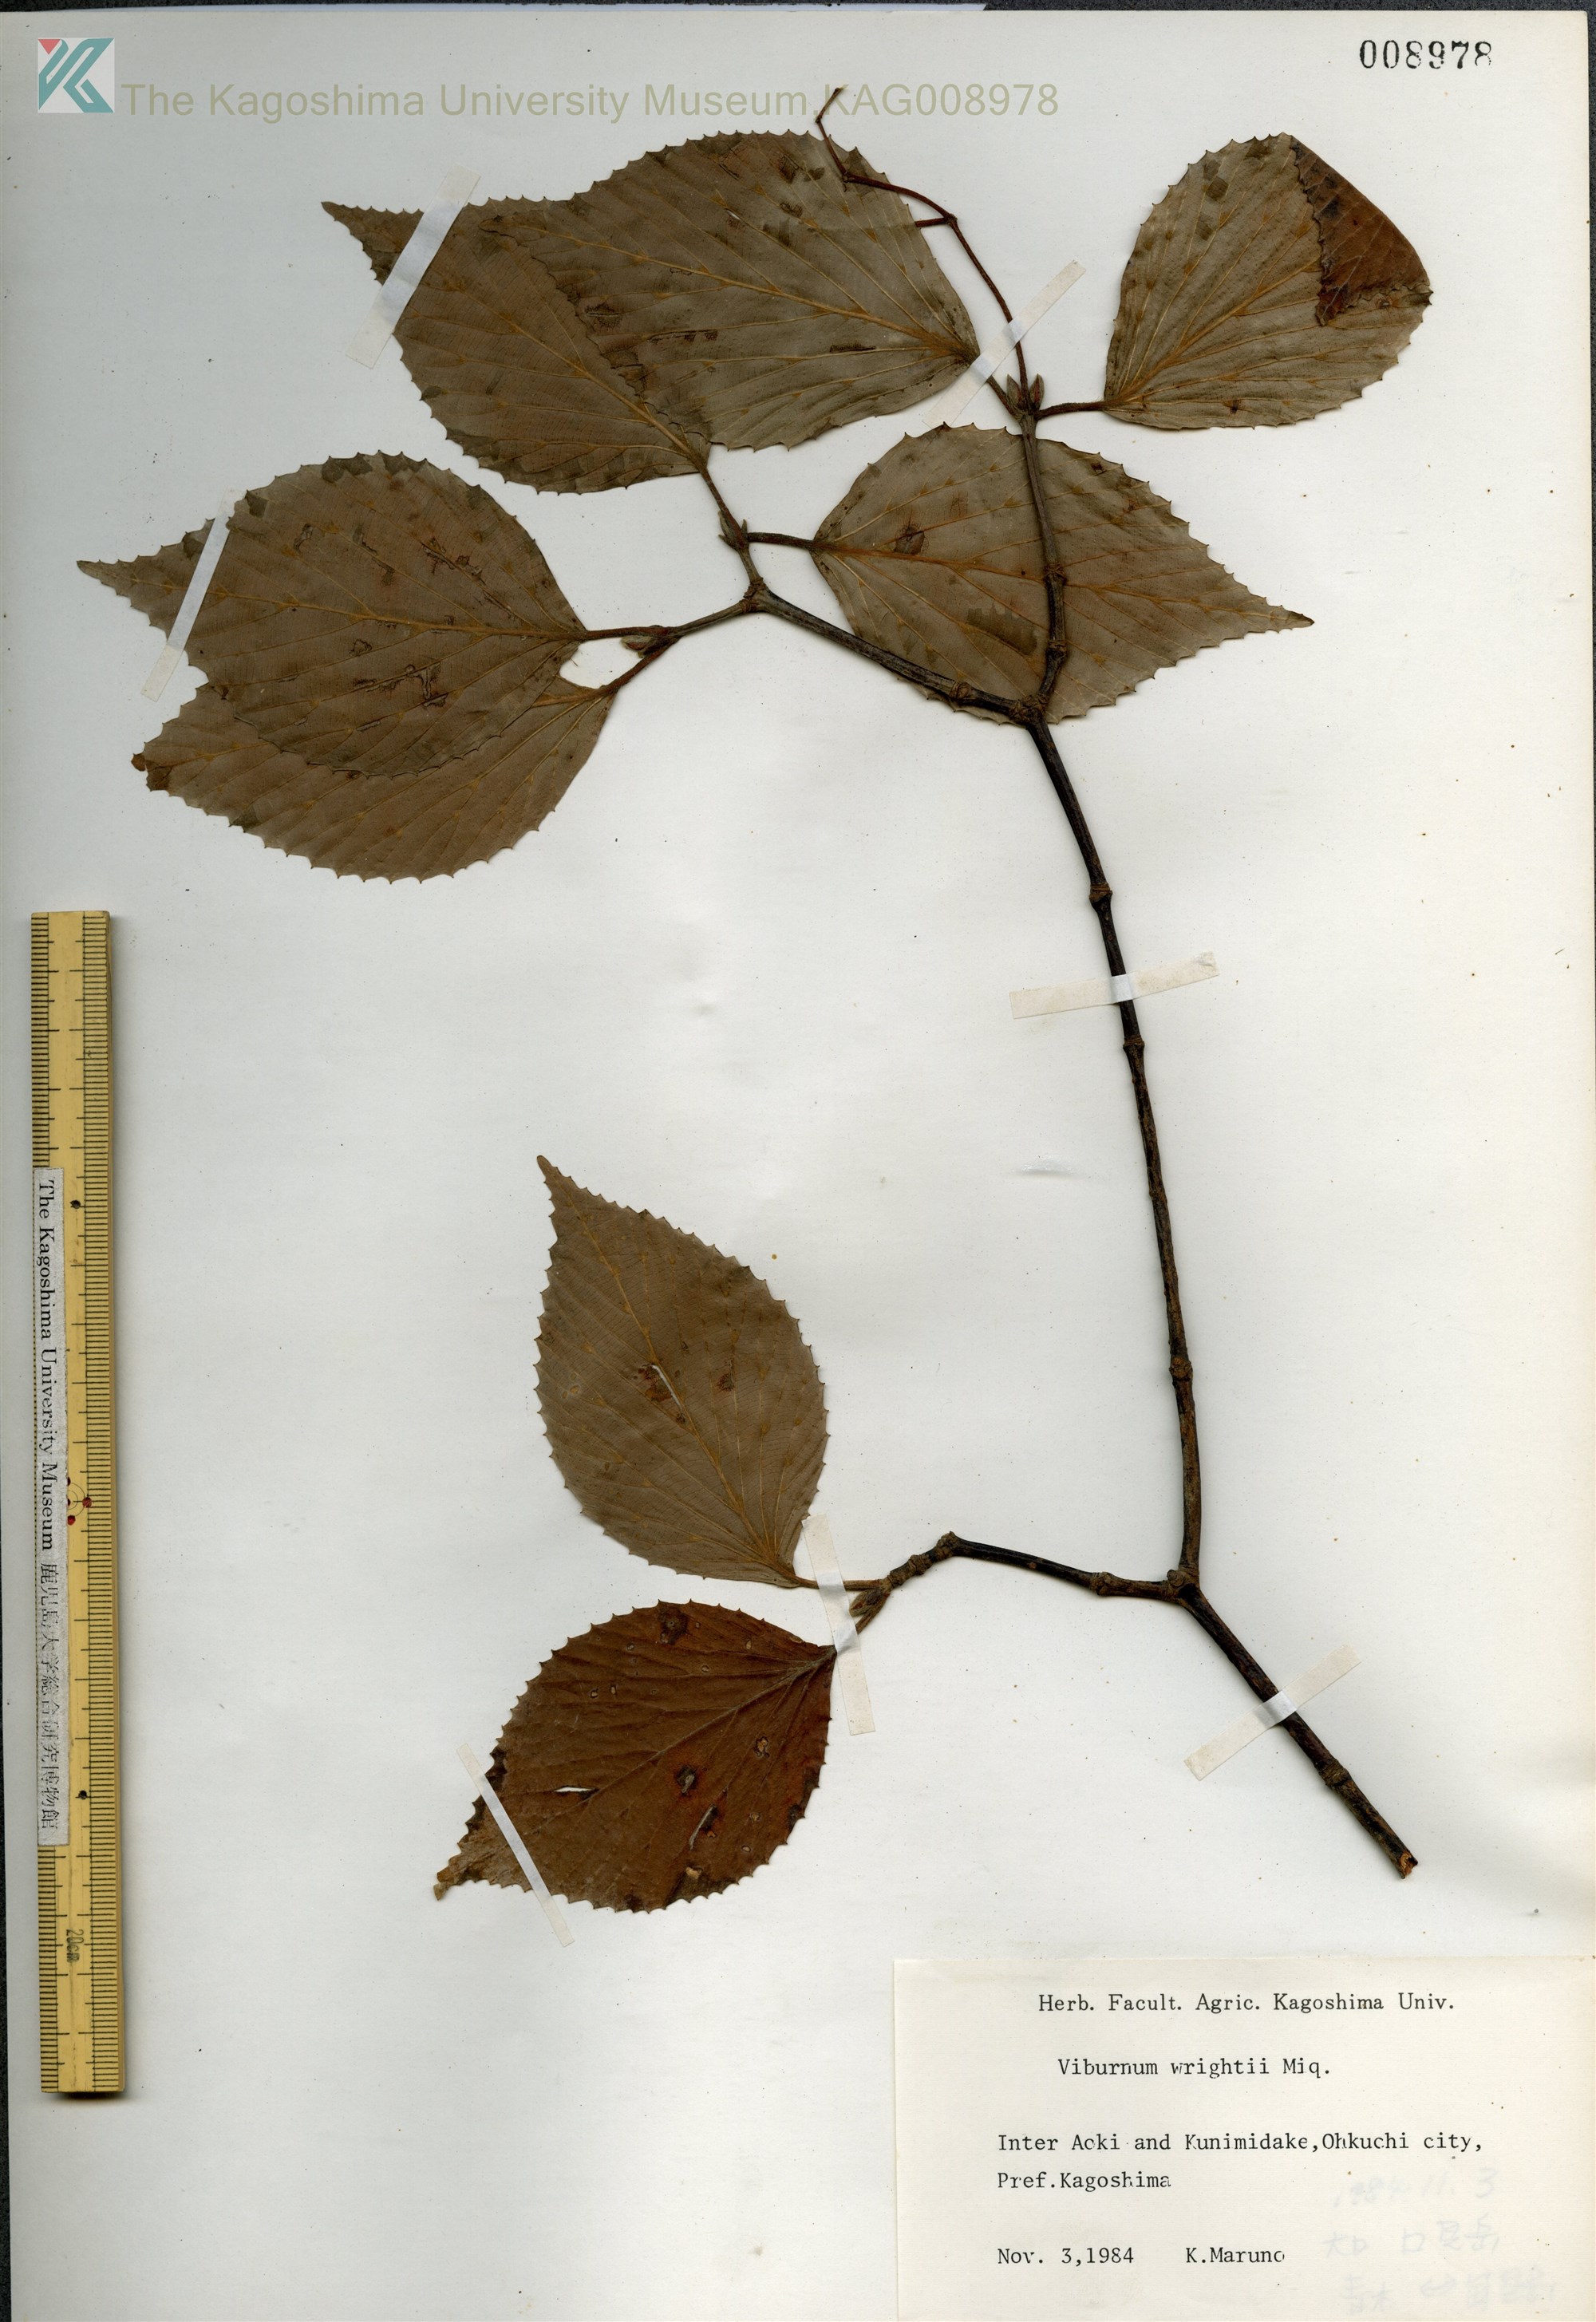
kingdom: Plantae
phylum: Tracheophyta
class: Magnoliopsida
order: Dipsacales
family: Viburnaceae
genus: Viburnum
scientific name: Viburnum wrightii
